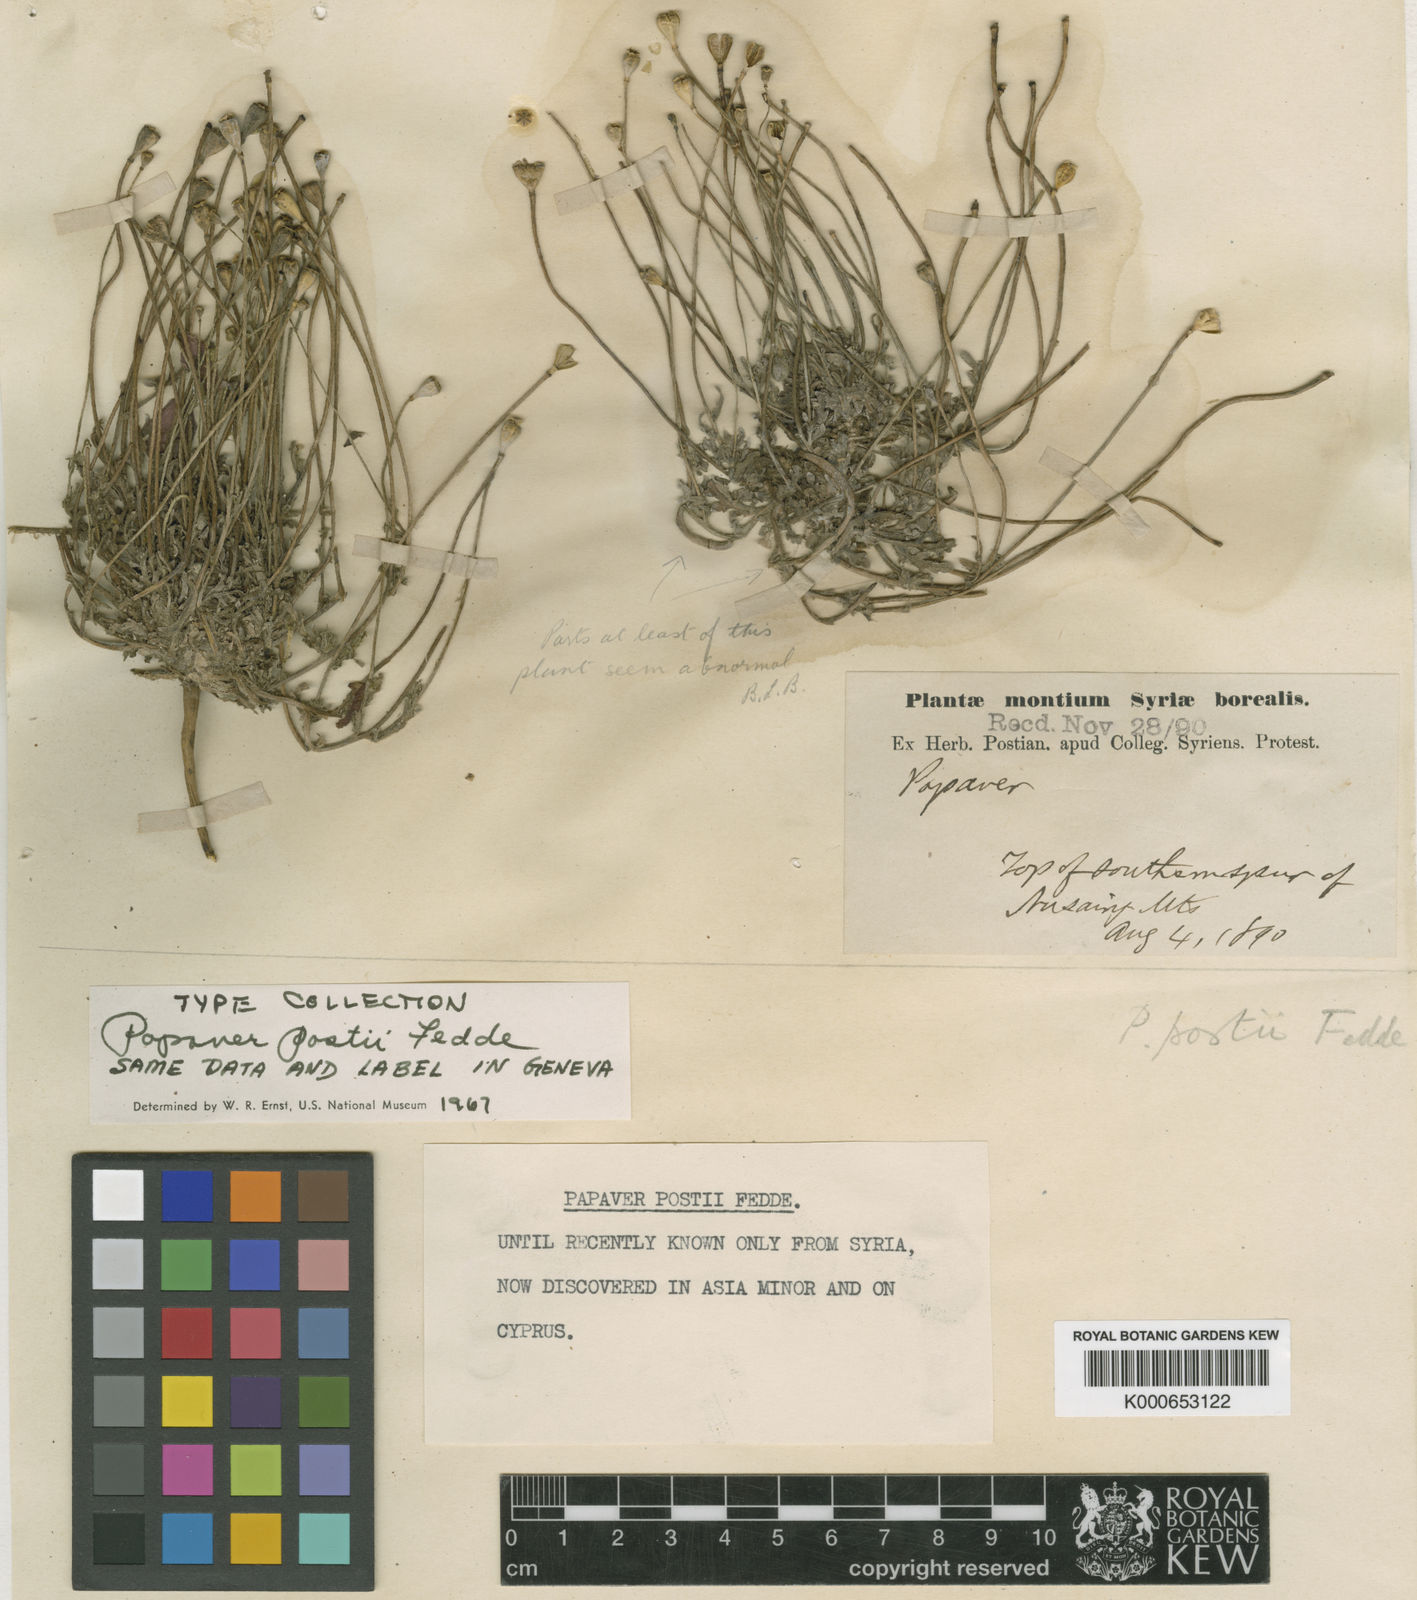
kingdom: Plantae
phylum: Tracheophyta
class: Magnoliopsida
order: Ranunculales
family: Papaveraceae
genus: Papaver
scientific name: Papaver postii
